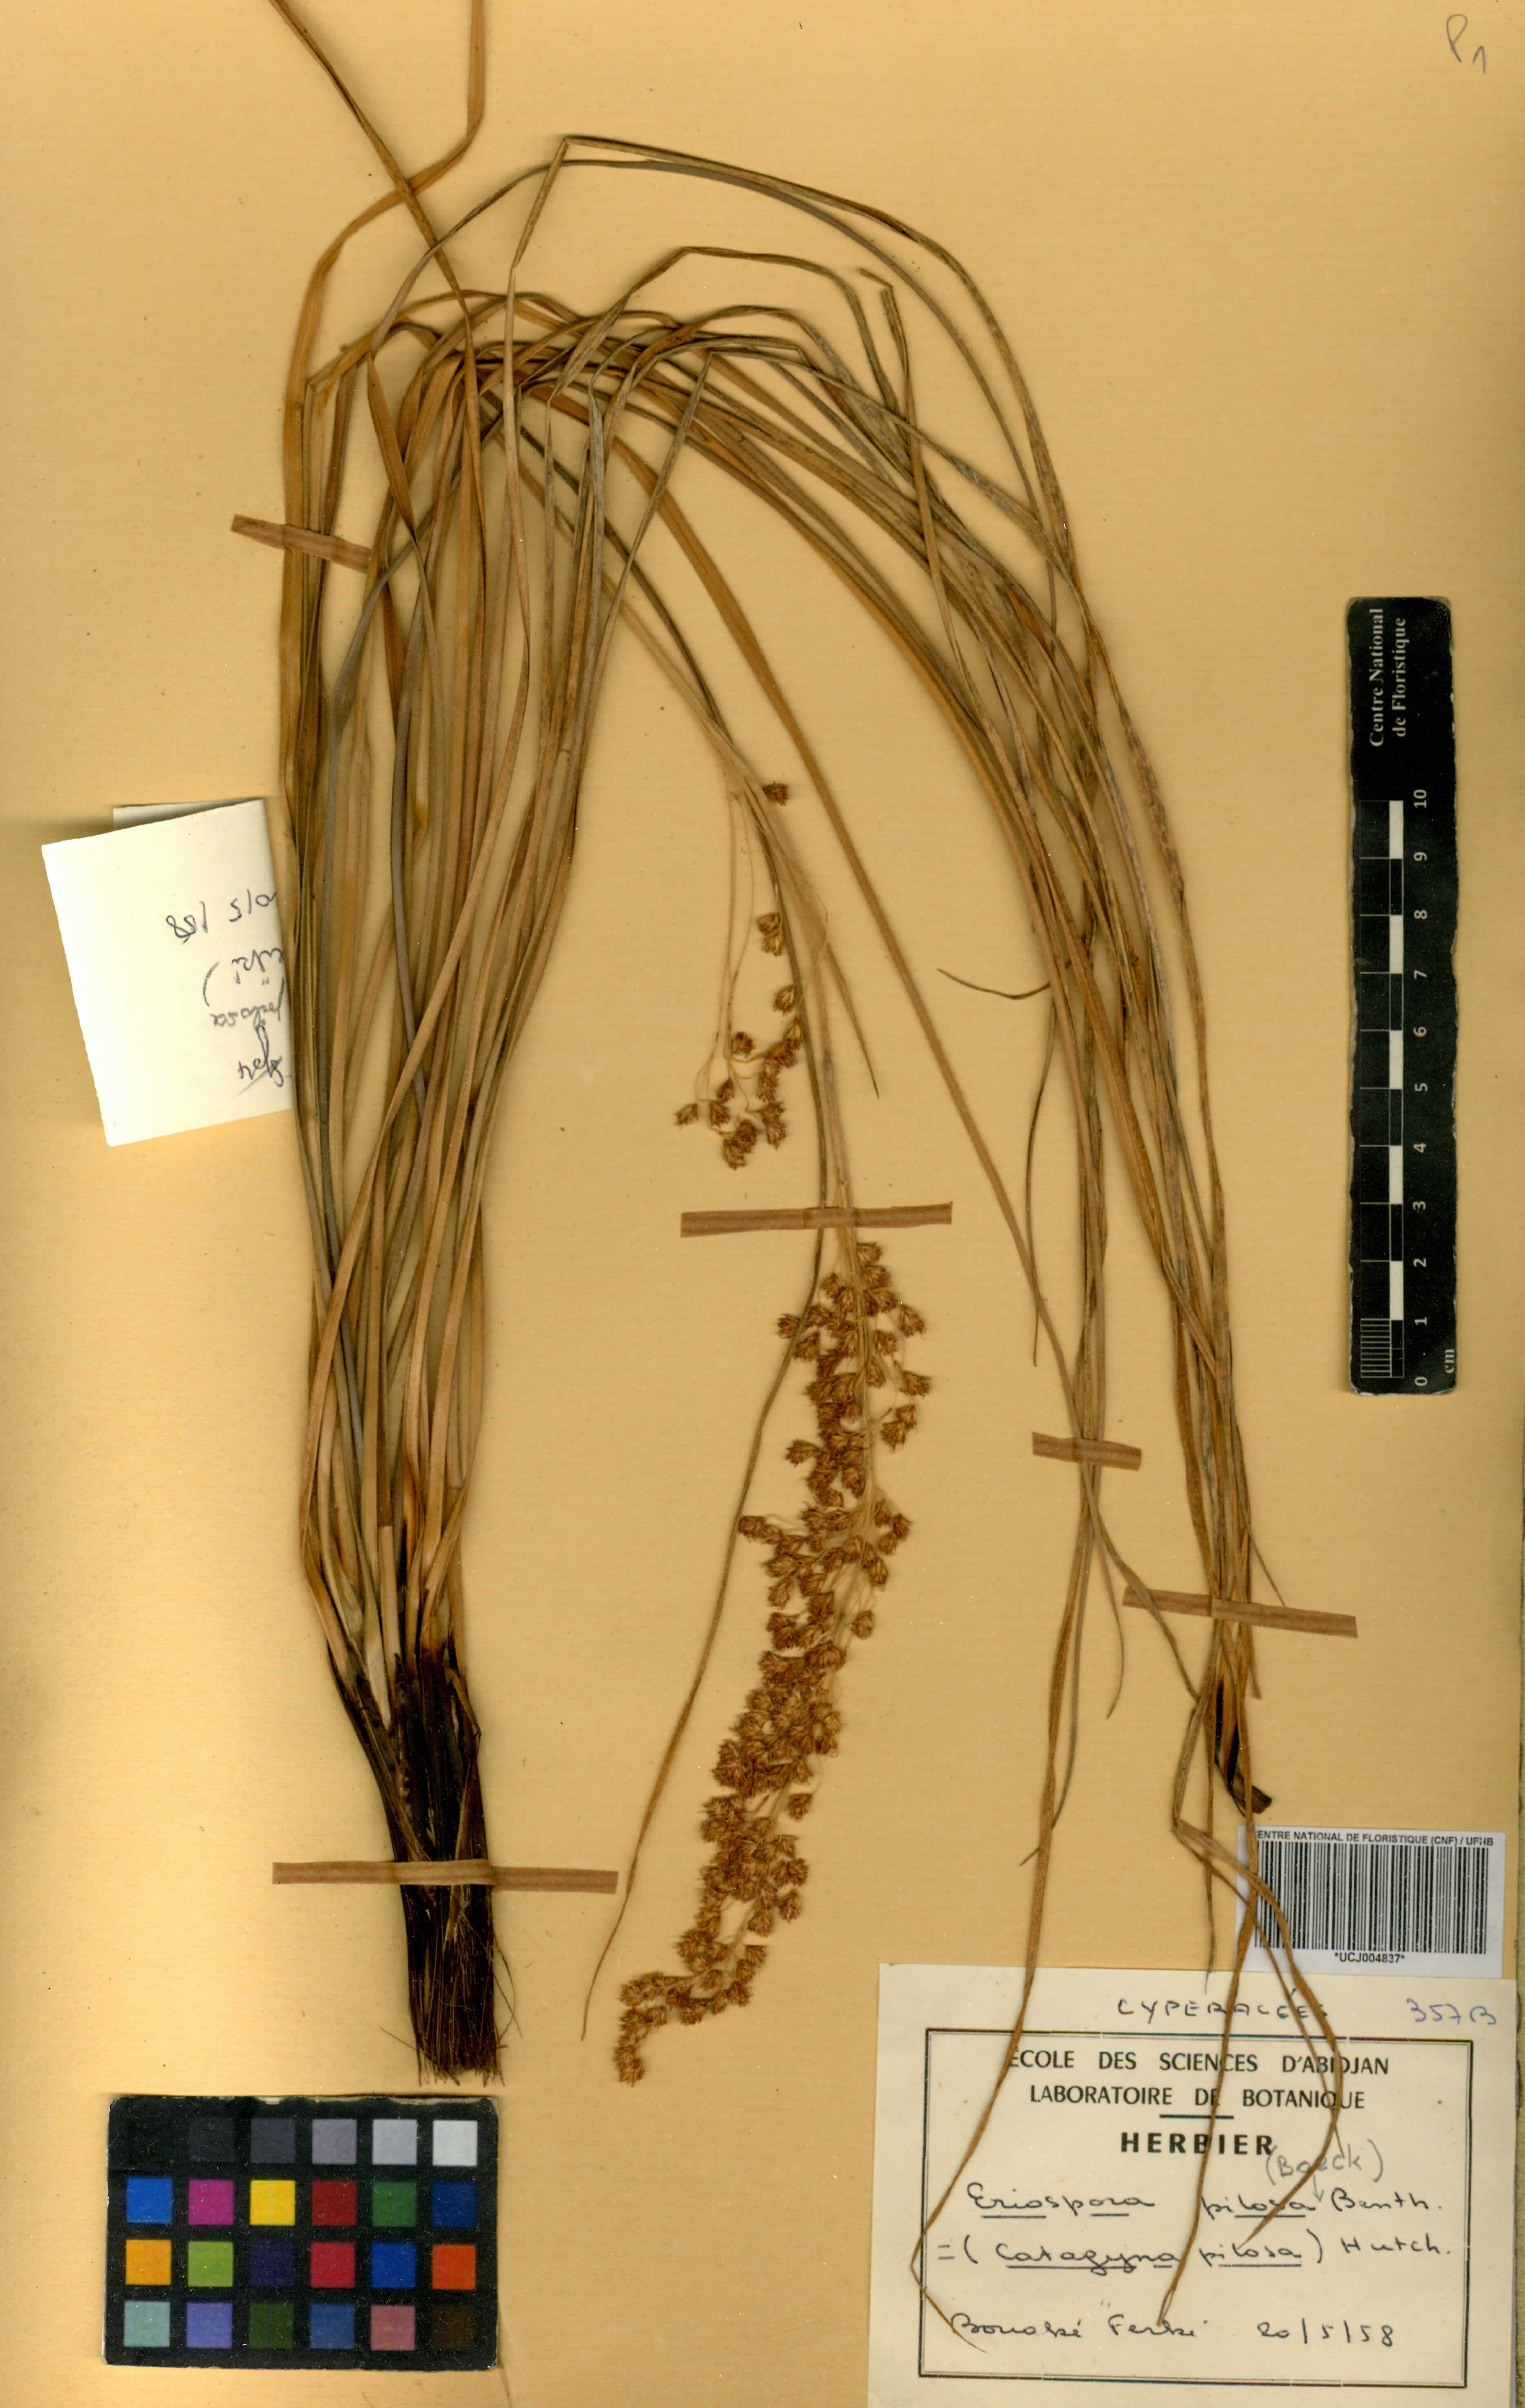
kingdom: Plantae
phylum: Tracheophyta
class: Liliopsida
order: Poales
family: Cyperaceae
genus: Afrotrilepis
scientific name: Afrotrilepis pilosa
